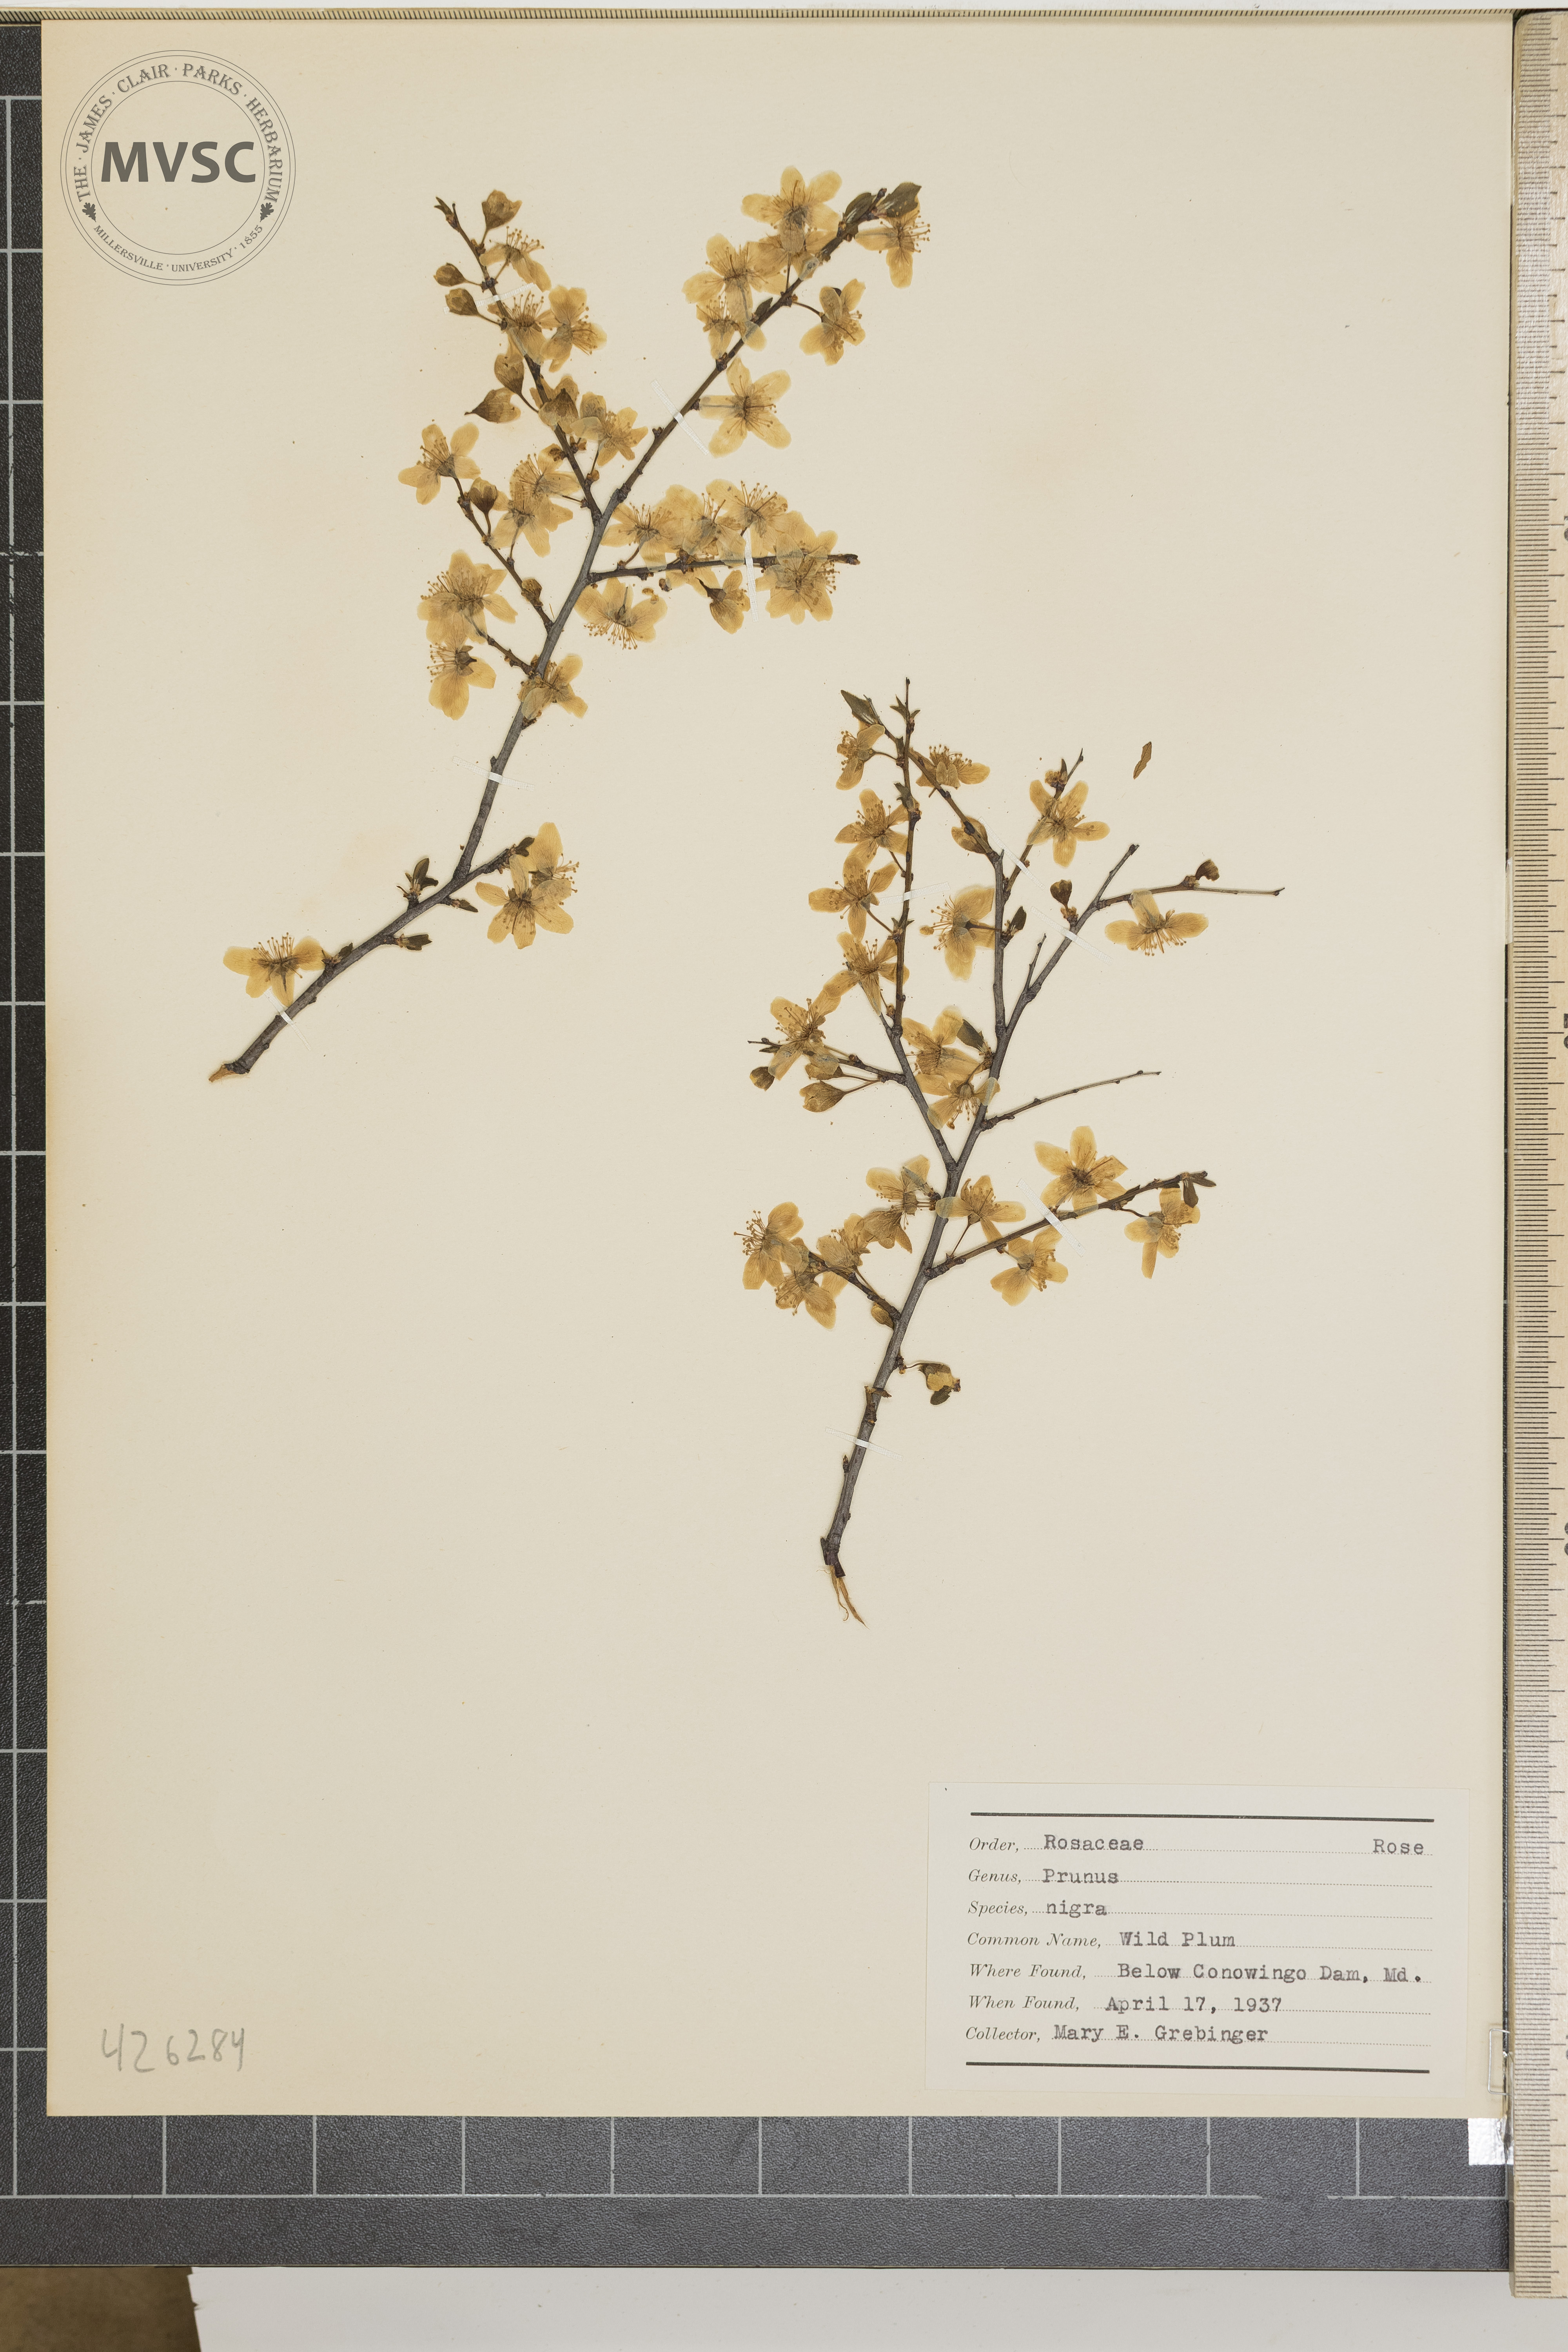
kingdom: Plantae
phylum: Tracheophyta
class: Magnoliopsida
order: Rosales
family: Rosaceae
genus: Prunus
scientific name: Prunus nigra
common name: Wild plum
